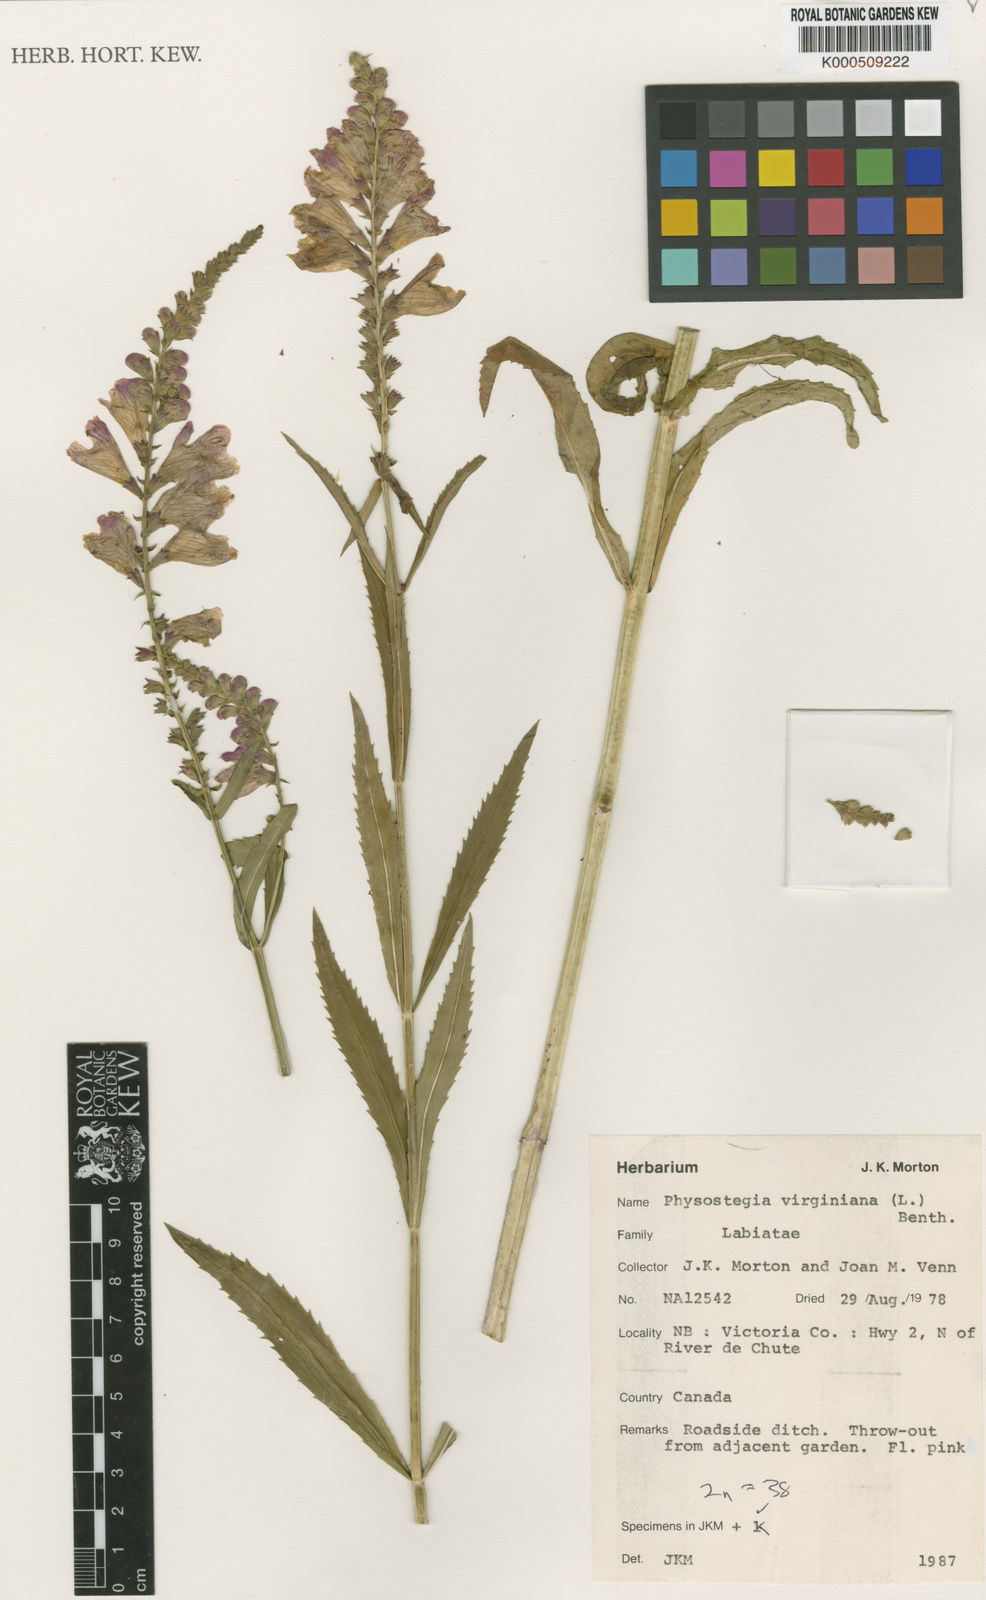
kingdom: Plantae
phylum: Tracheophyta
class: Magnoliopsida
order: Lamiales
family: Lamiaceae
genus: Physostegia
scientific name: Physostegia virginiana
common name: Obedient-plant
